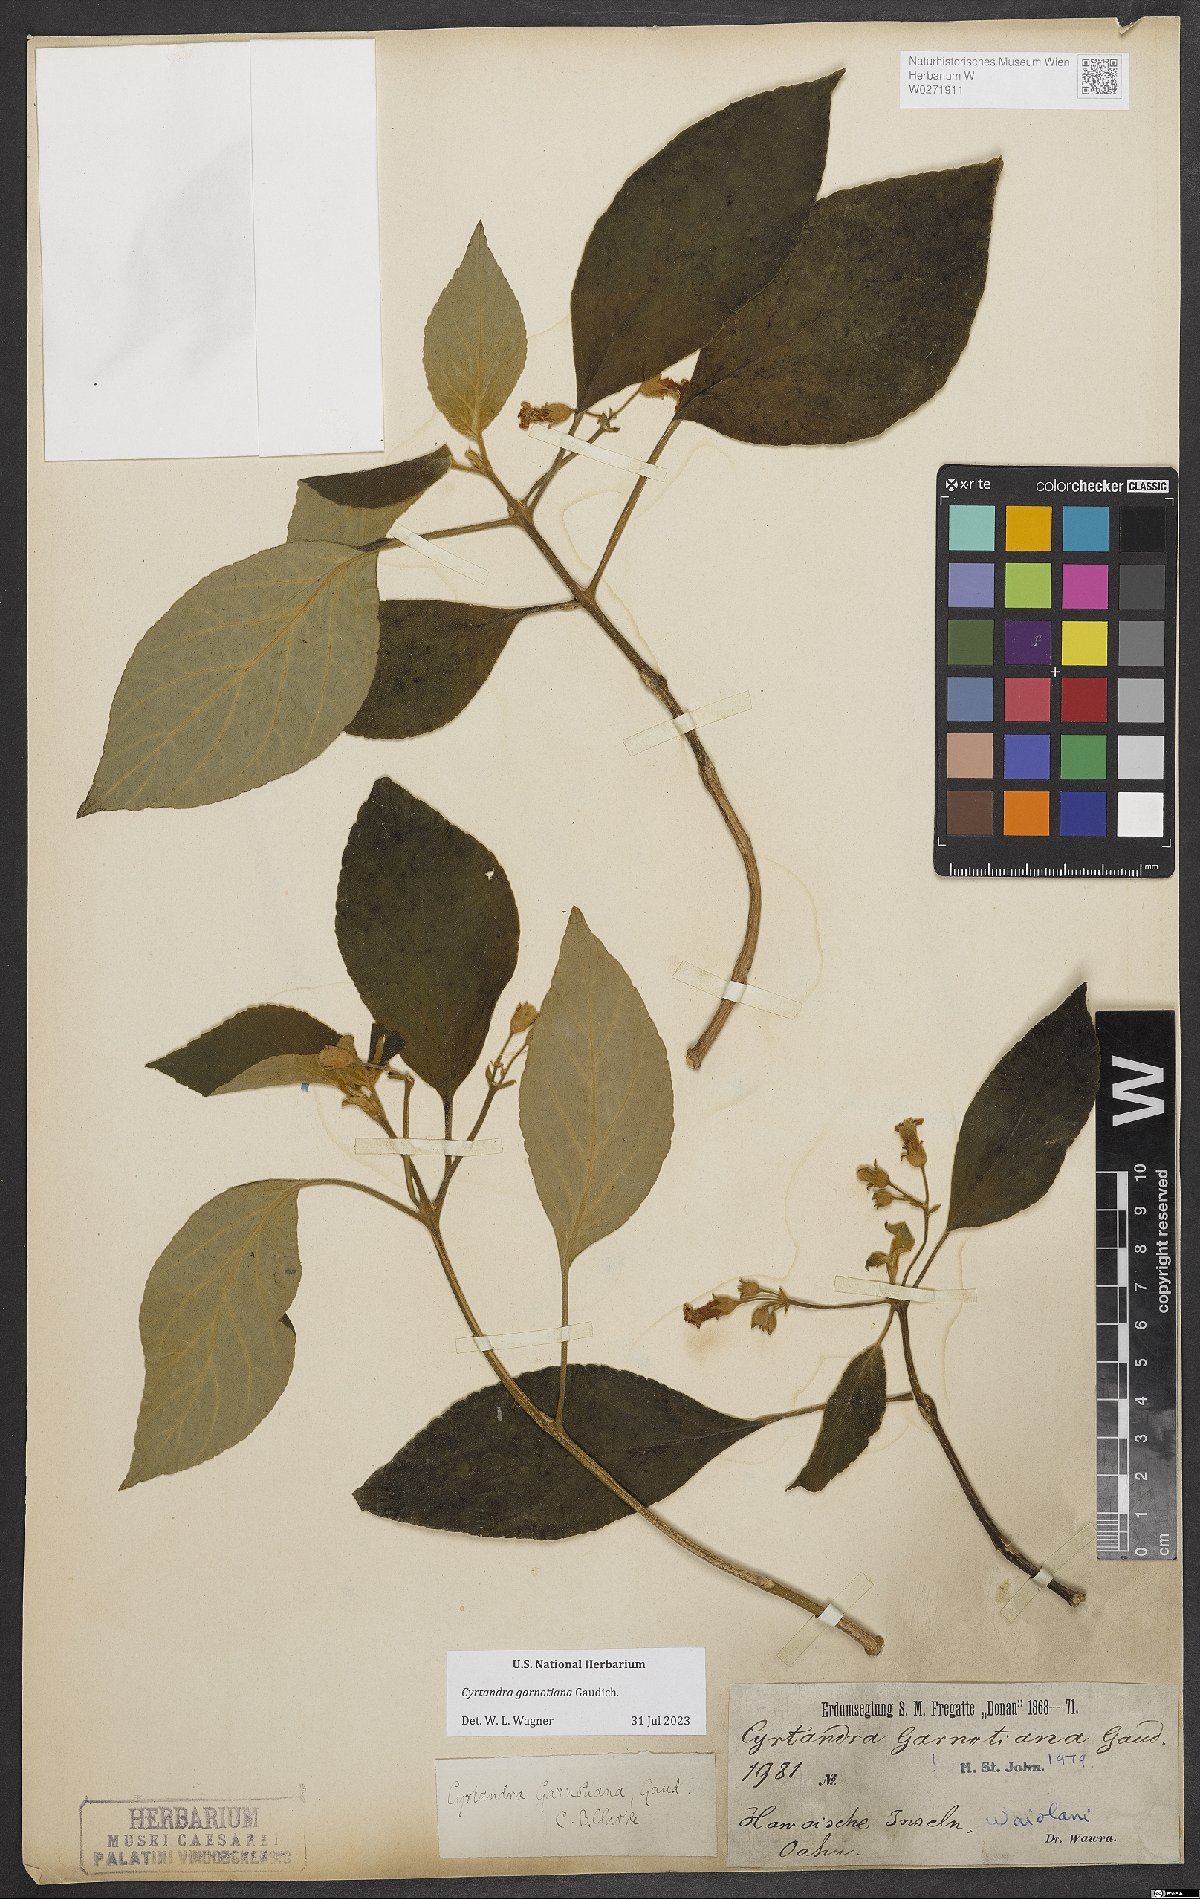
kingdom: Plantae
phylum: Tracheophyta
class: Magnoliopsida
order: Lamiales
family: Gesneriaceae
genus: Cyrtandra
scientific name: Cyrtandra garnotiana
